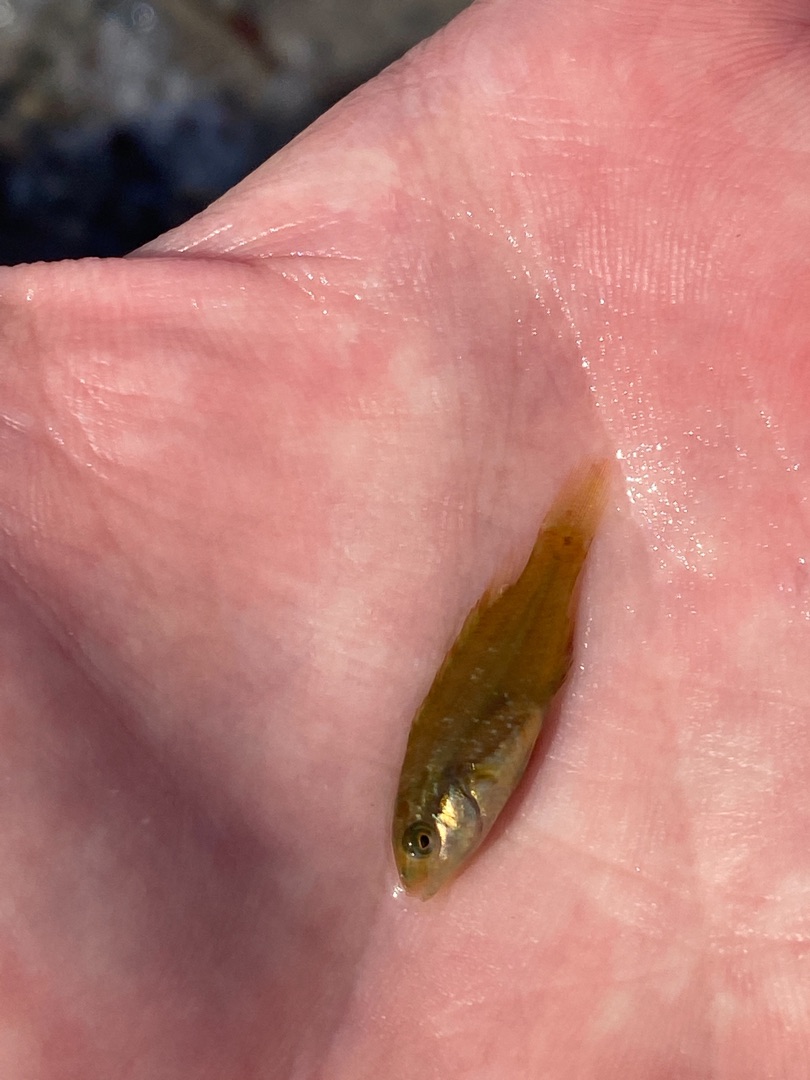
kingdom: Animalia
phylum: Chordata
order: Perciformes
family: Labridae
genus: Symphodus
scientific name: Symphodus melops
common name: Savgylte
